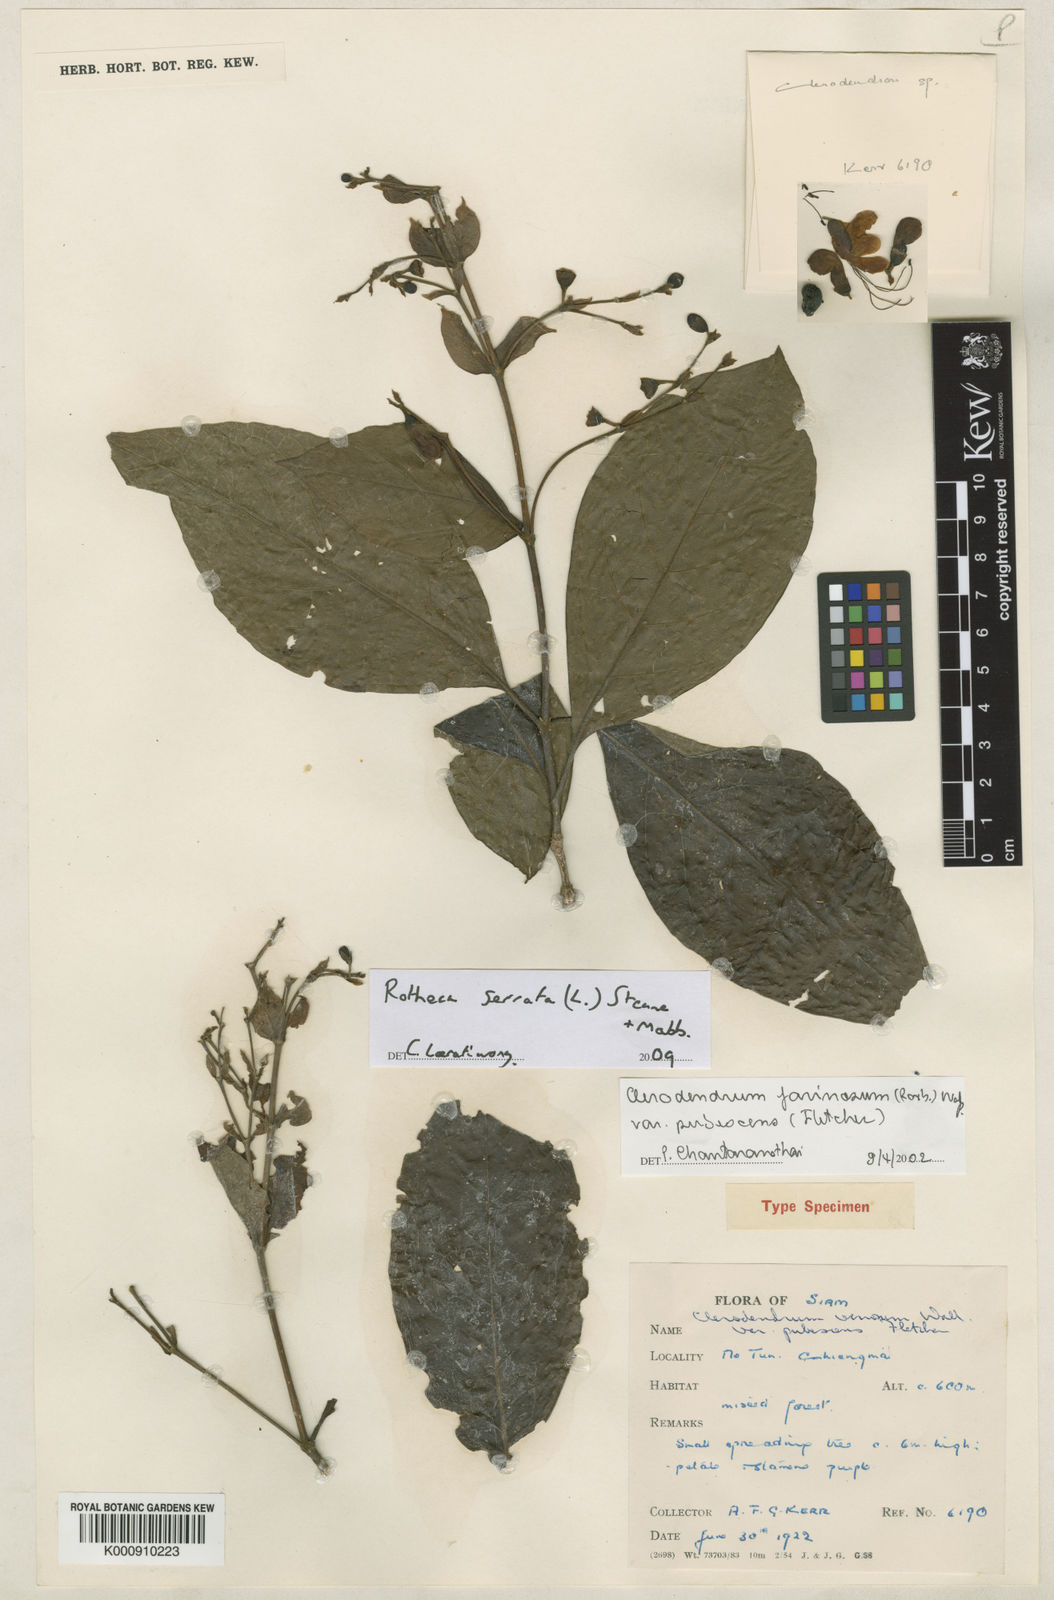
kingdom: Plantae
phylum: Tracheophyta
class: Magnoliopsida
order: Lamiales
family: Lamiaceae
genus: Rotheca
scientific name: Rotheca serrata
